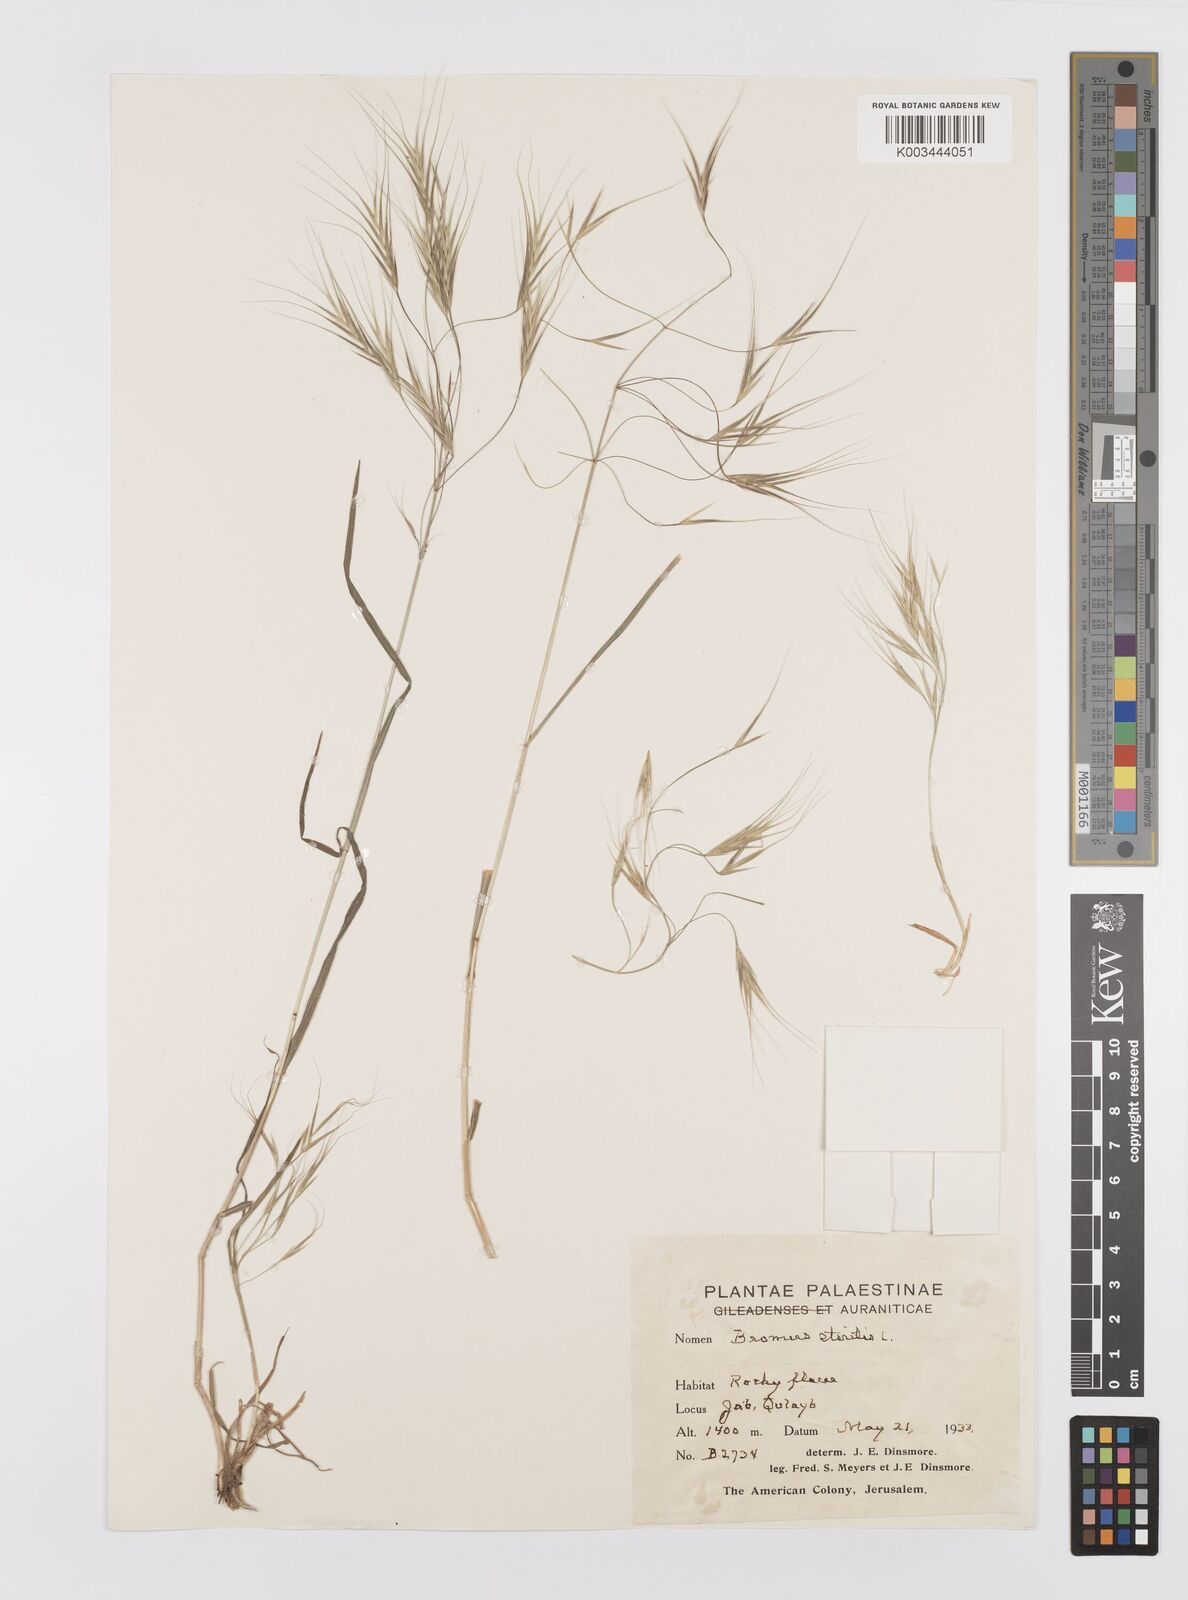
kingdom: Plantae
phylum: Tracheophyta
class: Liliopsida
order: Poales
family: Poaceae
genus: Bromus
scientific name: Bromus sterilis
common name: Poverty brome
